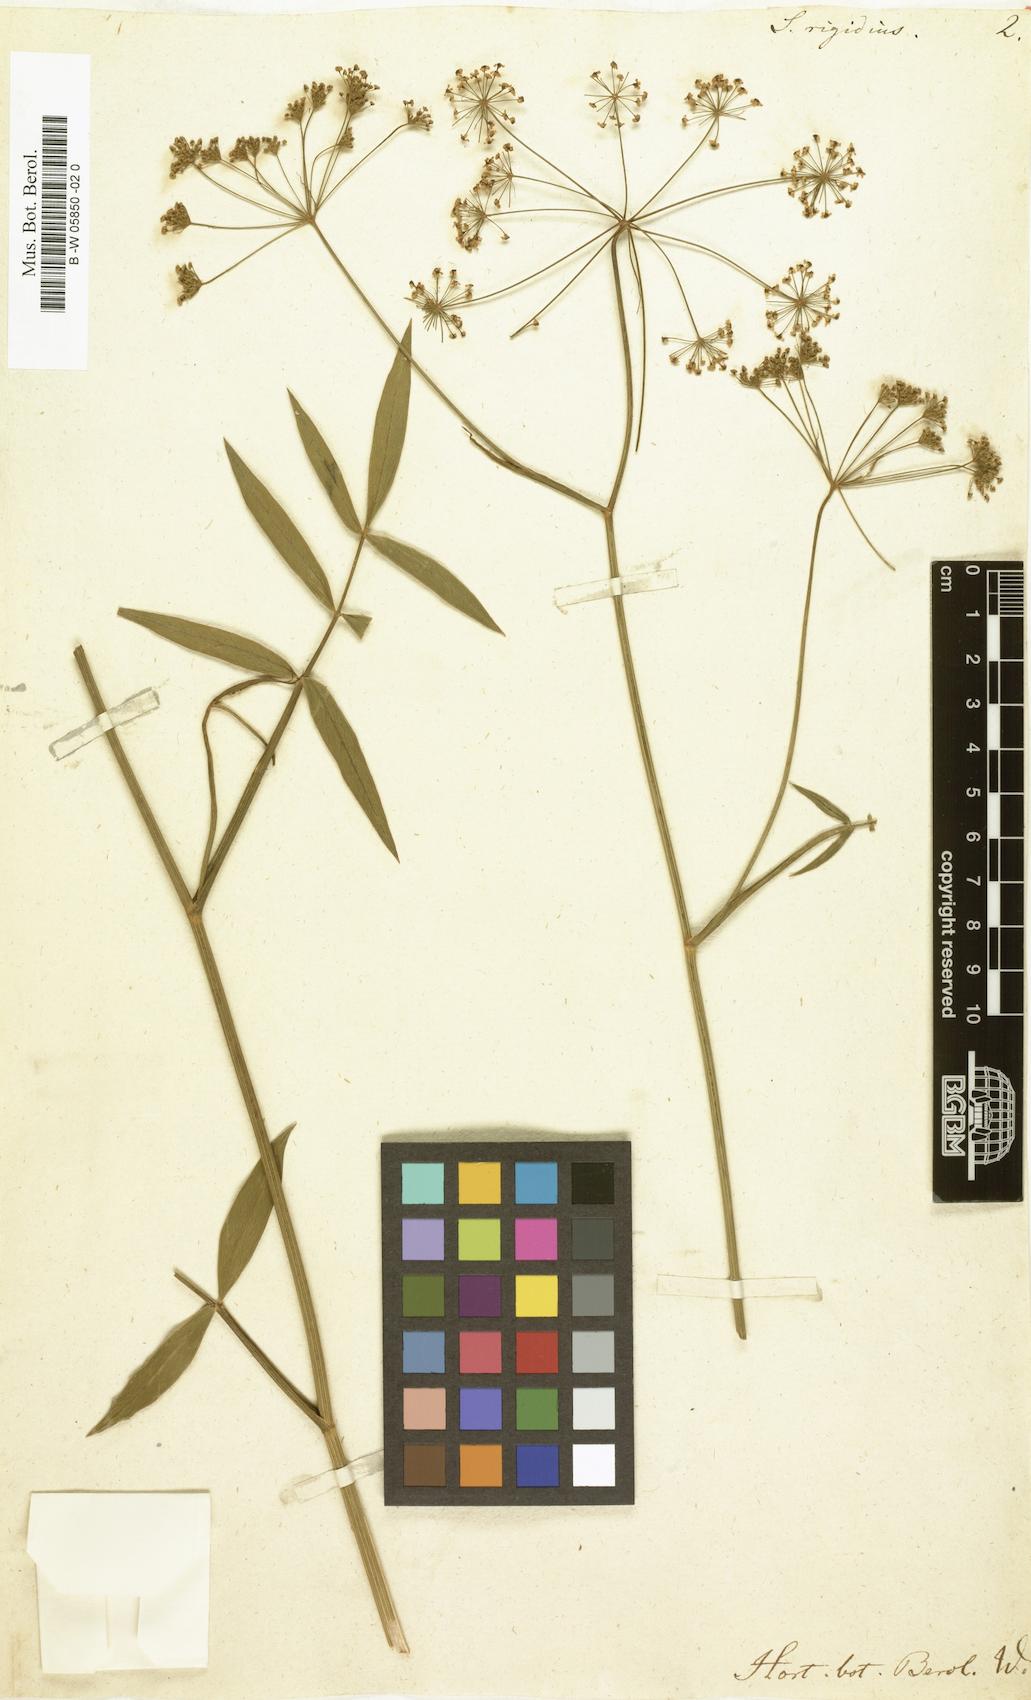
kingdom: Plantae
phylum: Tracheophyta
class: Magnoliopsida
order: Apiales
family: Apiaceae
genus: Oxypolis
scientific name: Oxypolis rigidior
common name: Cowbane
